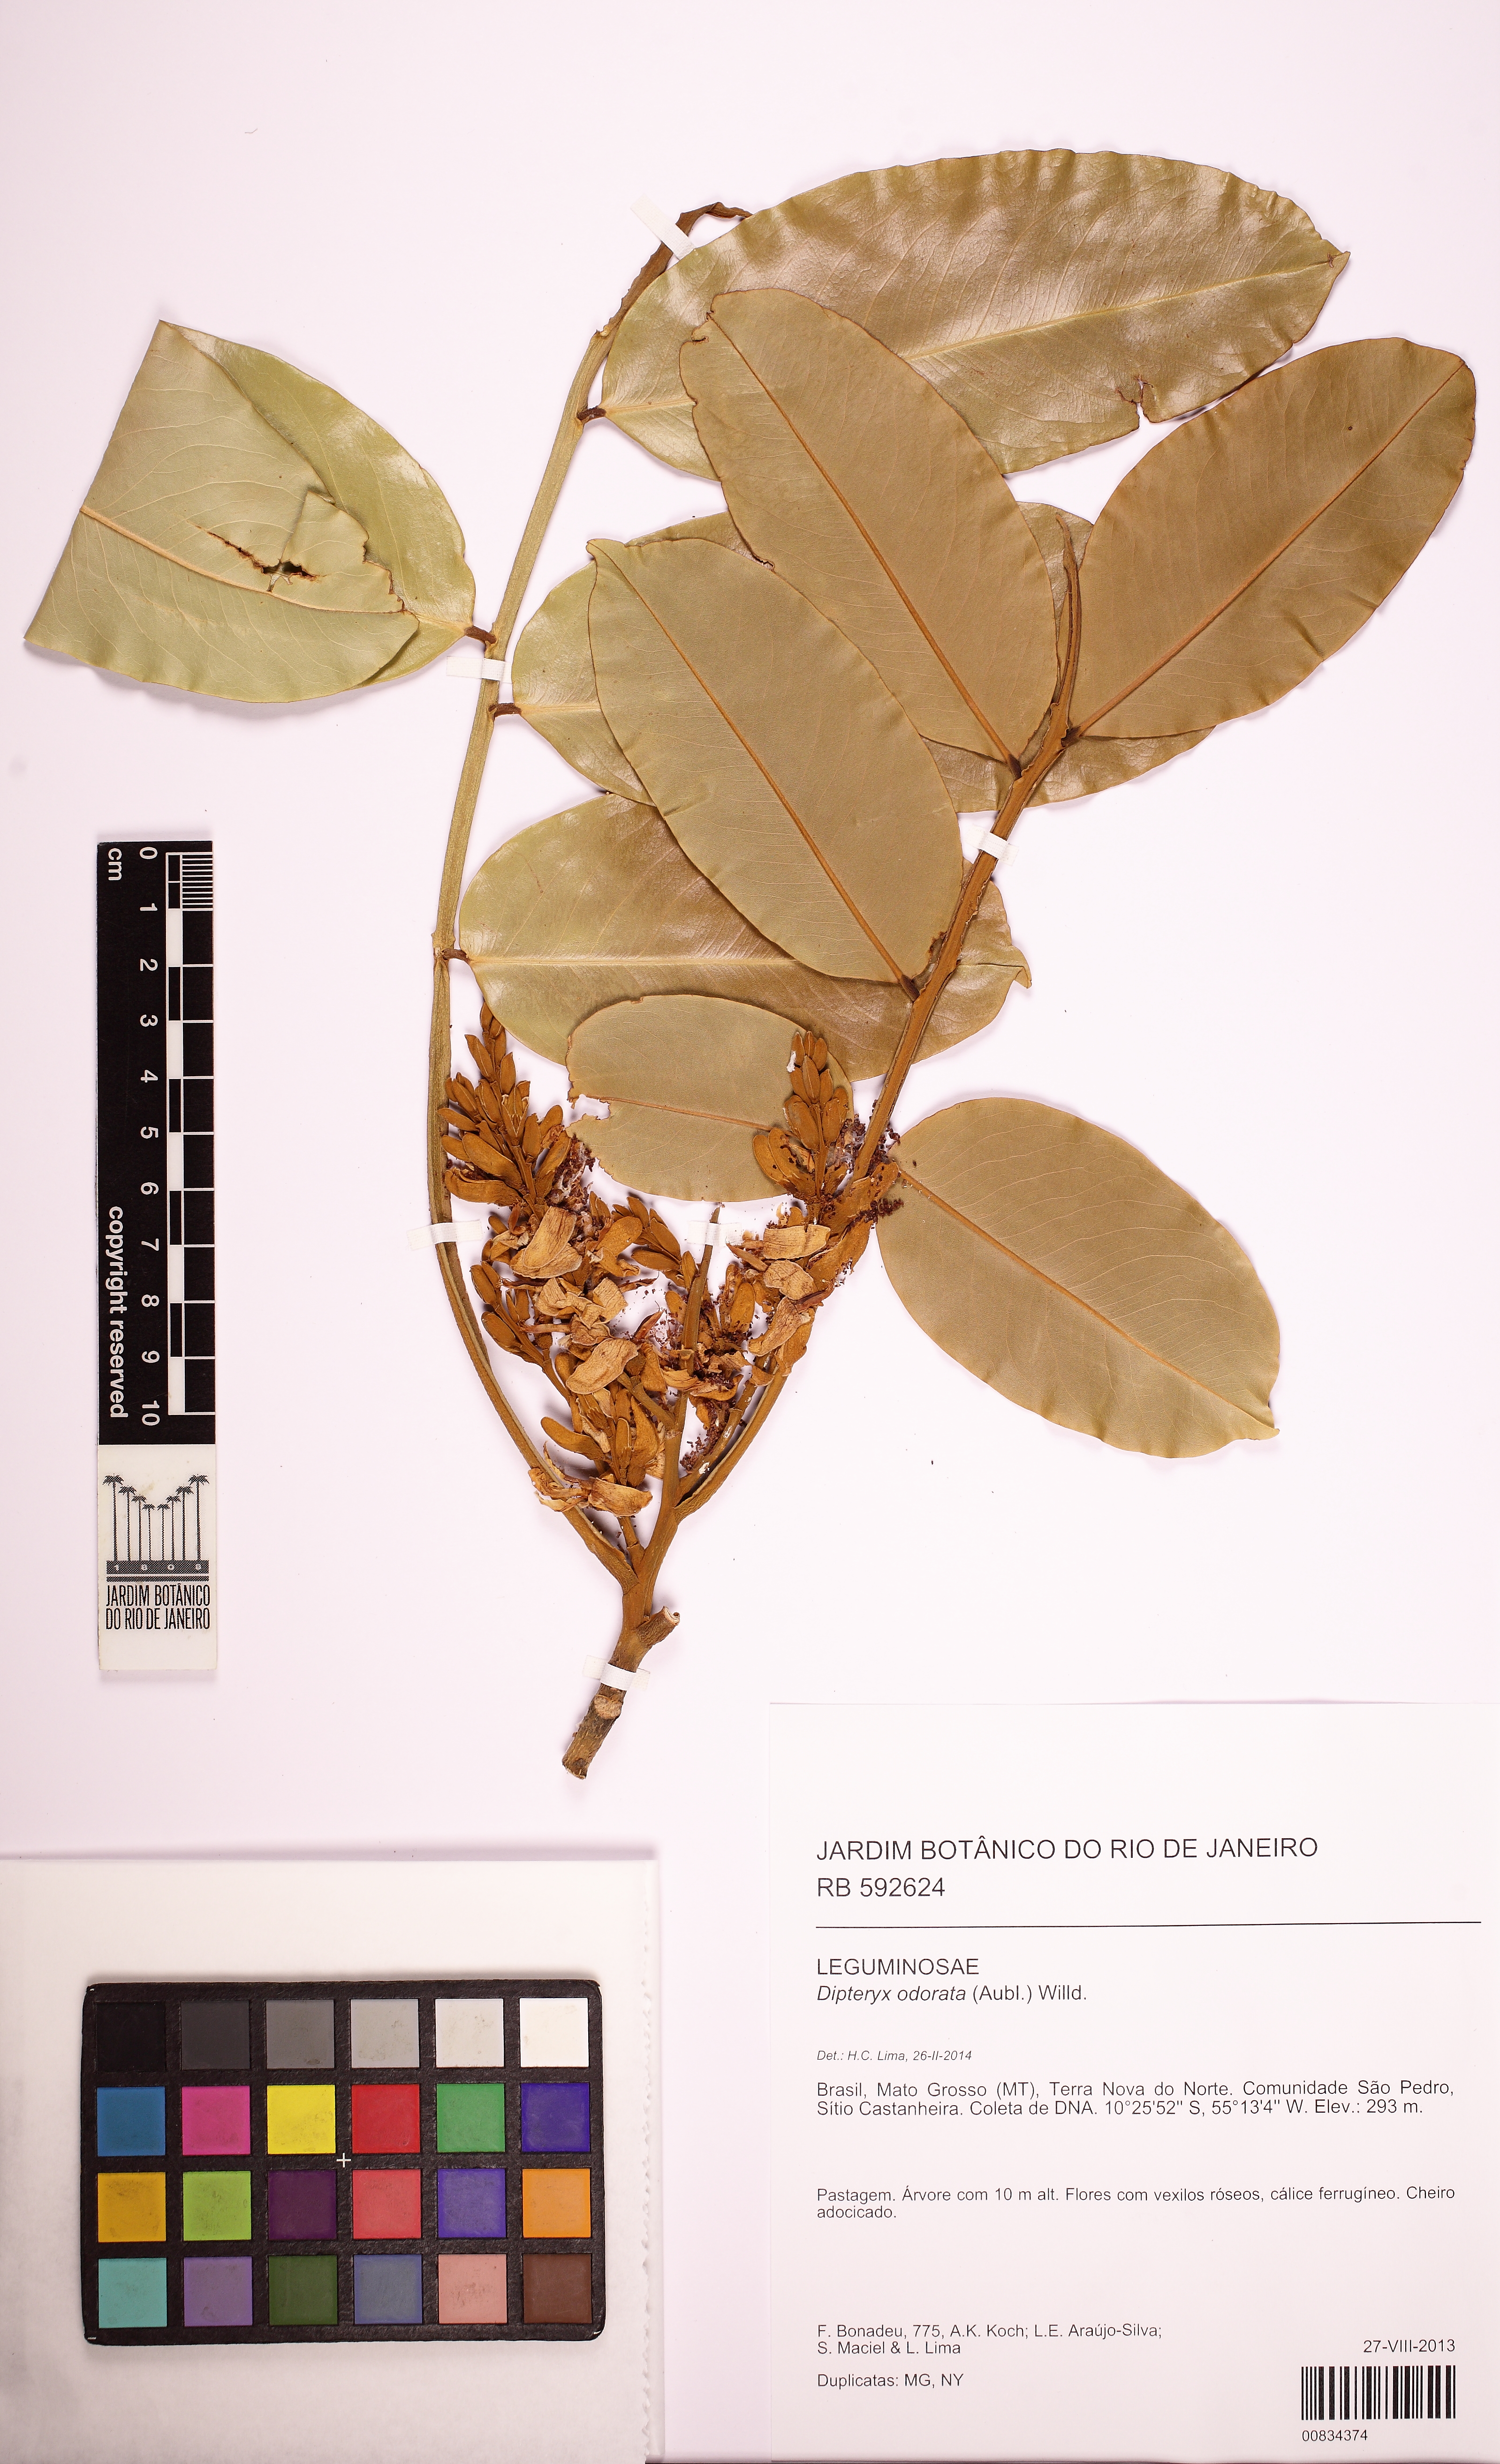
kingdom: Plantae
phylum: Tracheophyta
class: Magnoliopsida
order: Fabales
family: Fabaceae
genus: Dipteryx
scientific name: Dipteryx odorata
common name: Tonka
